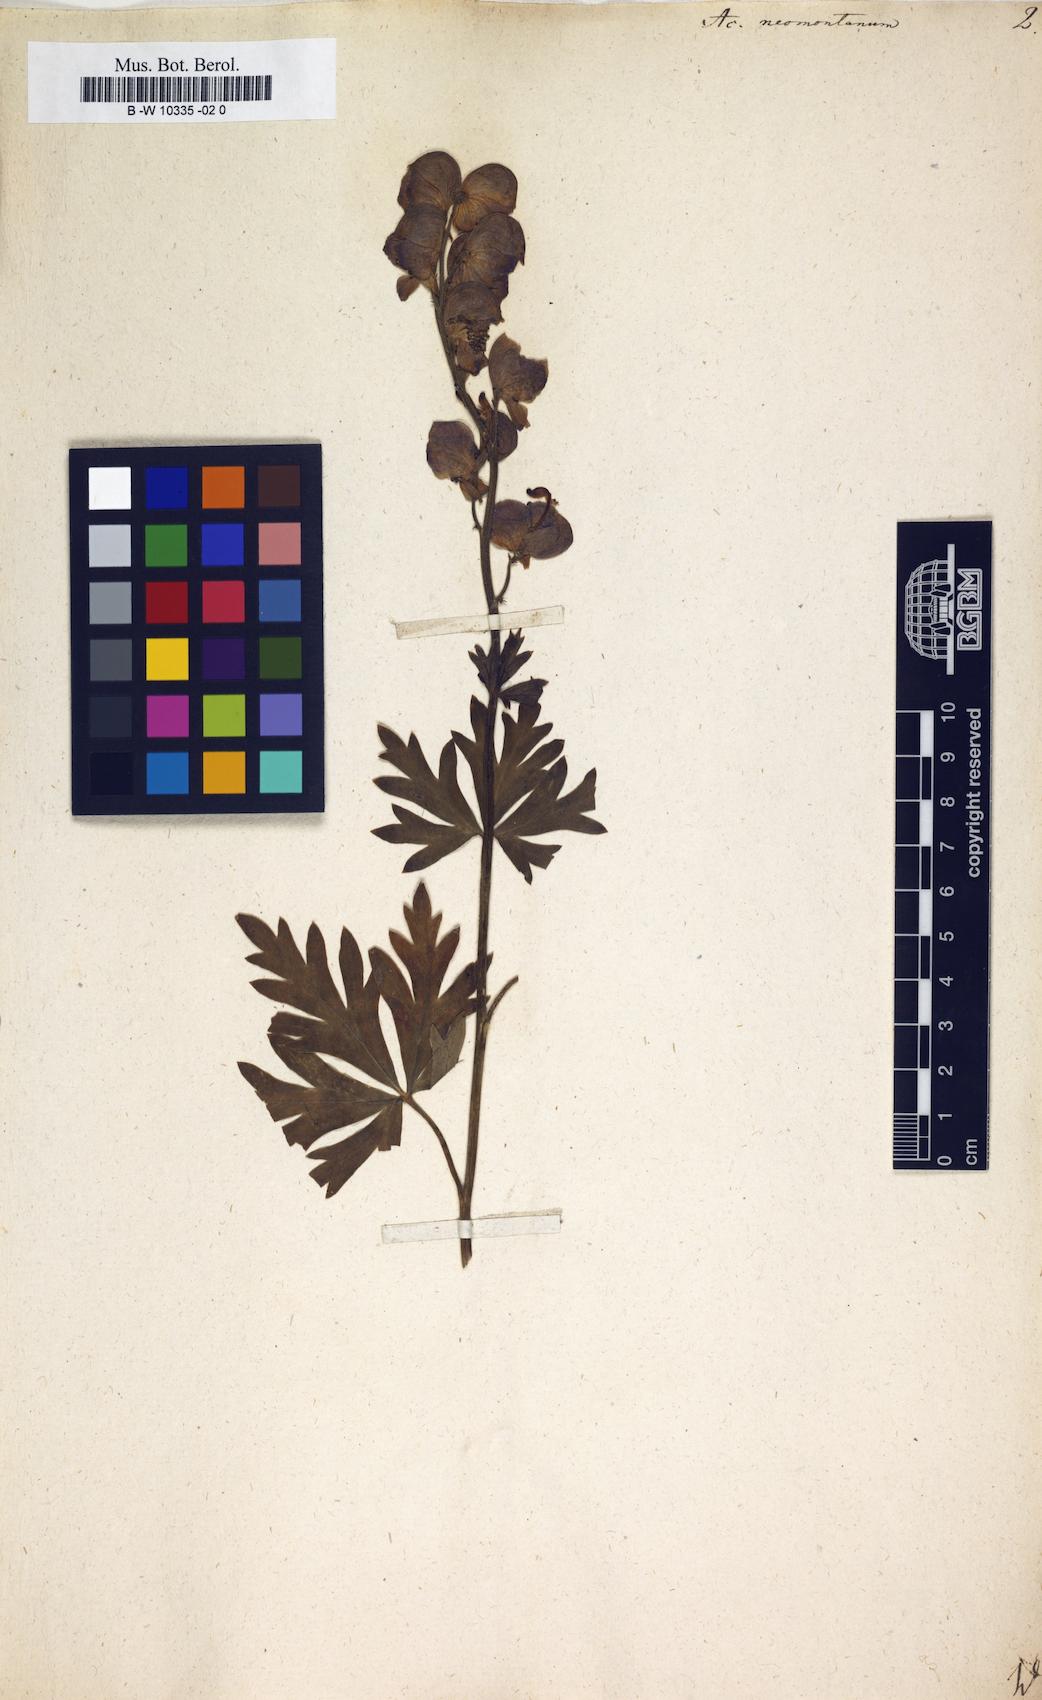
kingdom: Plantae
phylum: Tracheophyta
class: Magnoliopsida
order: Ranunculales
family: Ranunculaceae
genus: Aconitum
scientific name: Aconitum napellus
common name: Garden monkshood
